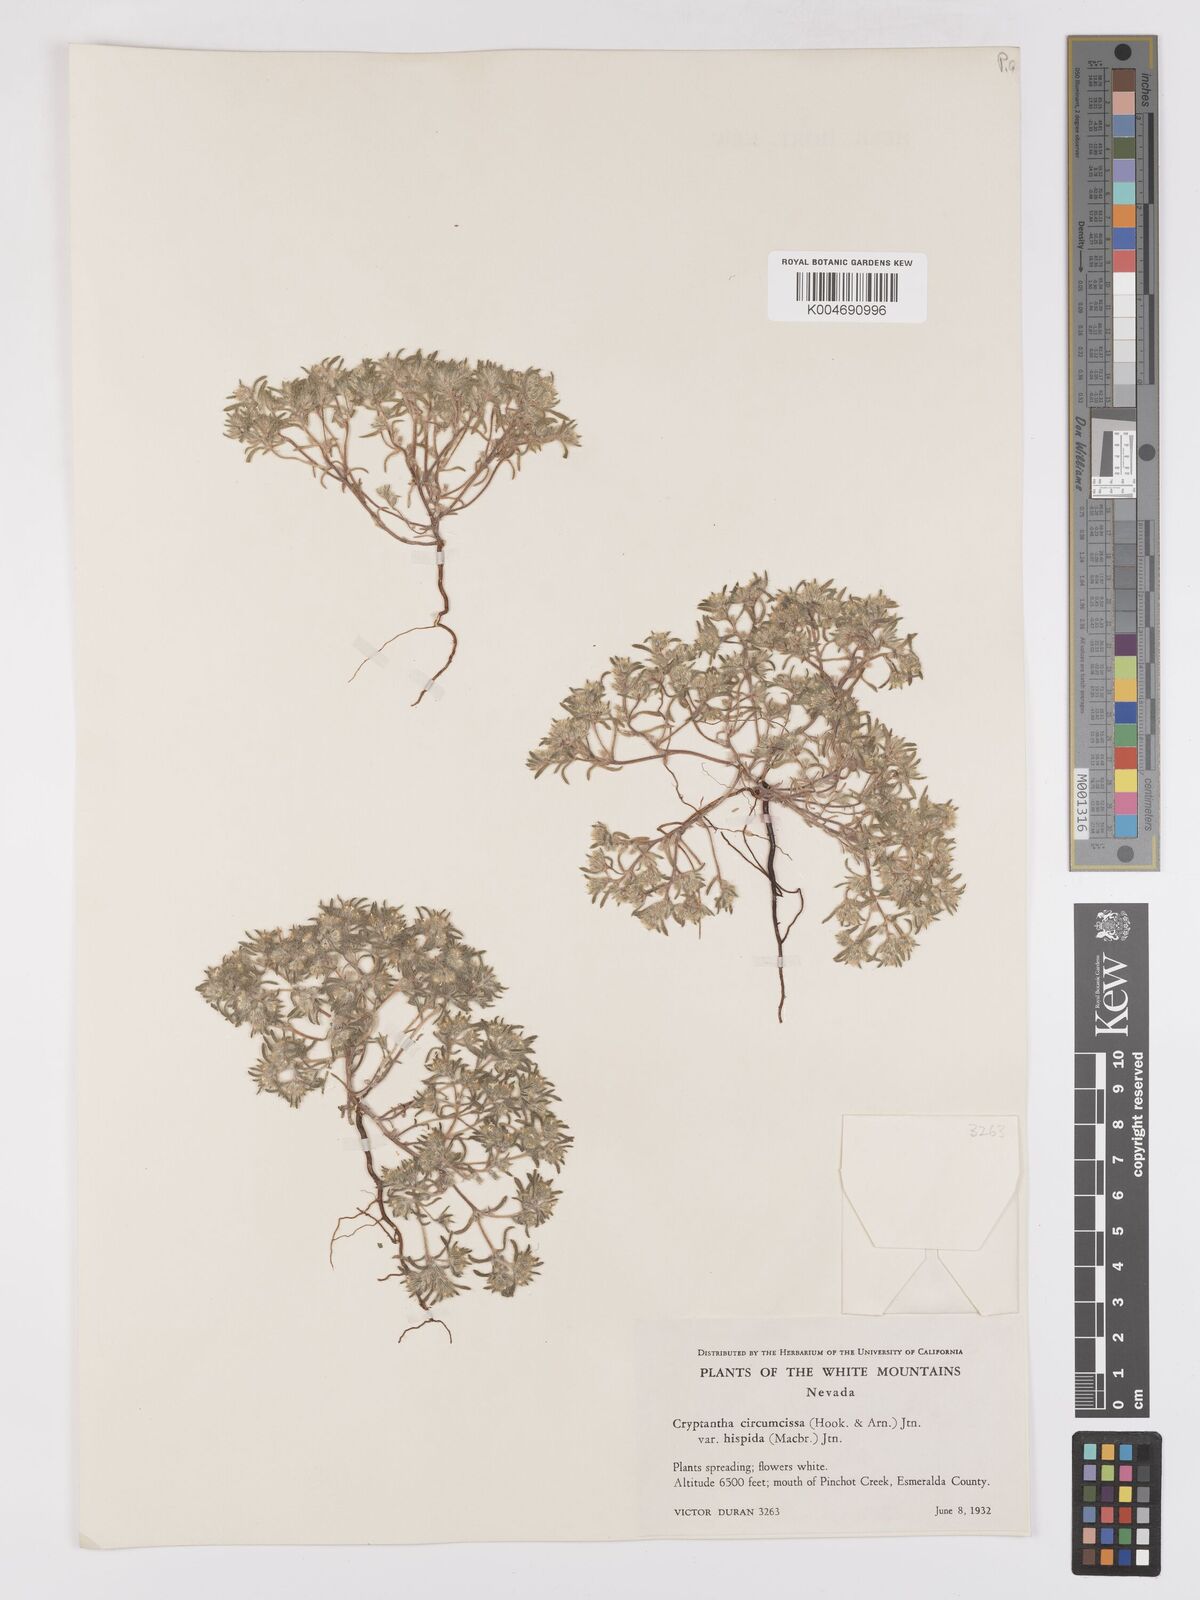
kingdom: Plantae
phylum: Tracheophyta
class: Magnoliopsida
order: Boraginales
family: Boraginaceae
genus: Greeneocharis
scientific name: Greeneocharis circumscissa
